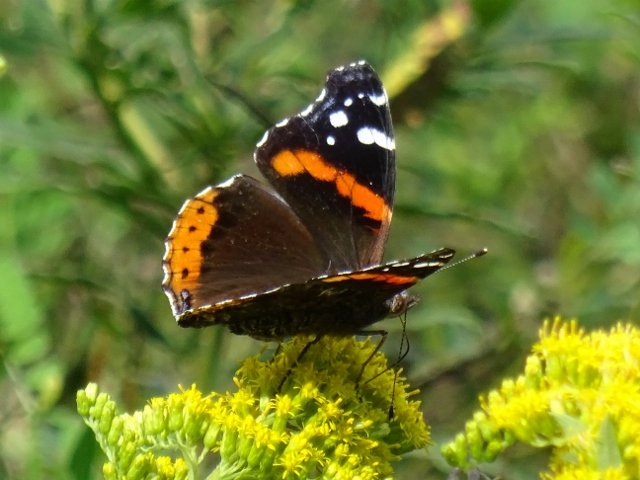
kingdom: Animalia
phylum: Arthropoda
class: Insecta
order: Lepidoptera
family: Nymphalidae
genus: Vanessa
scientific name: Vanessa atalanta
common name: Red Admiral
